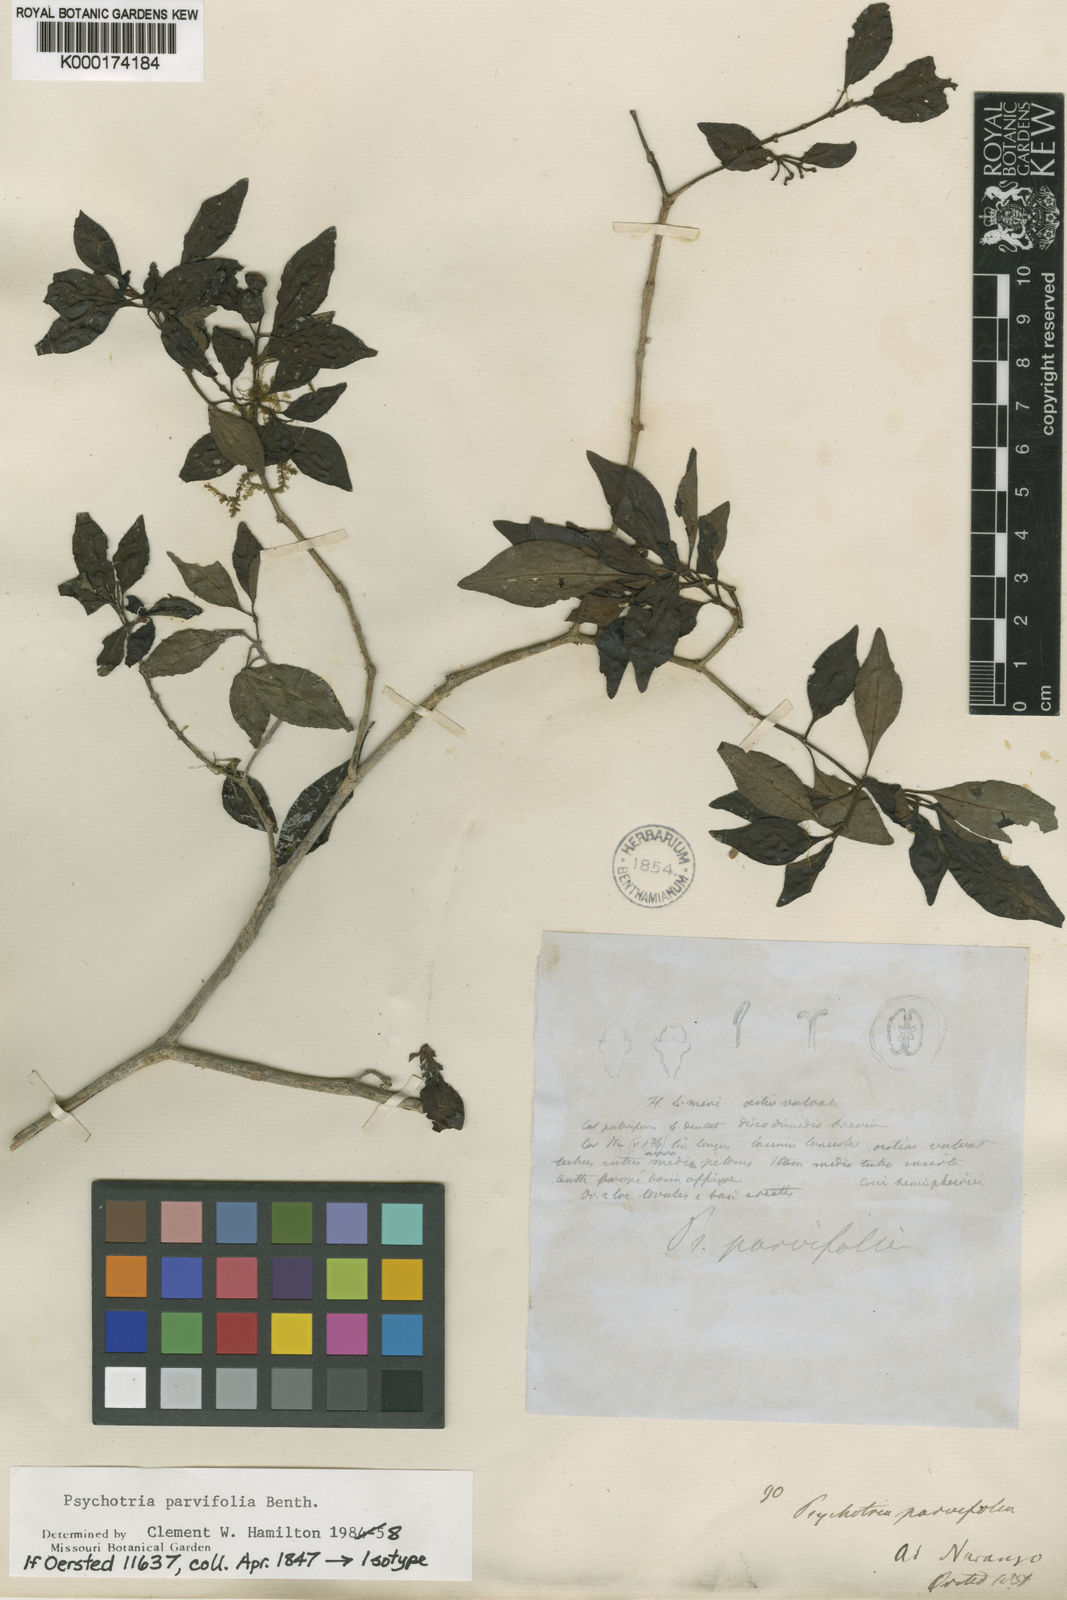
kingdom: Plantae
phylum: Tracheophyta
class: Magnoliopsida
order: Gentianales
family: Rubiaceae
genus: Psychotria
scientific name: Psychotria
